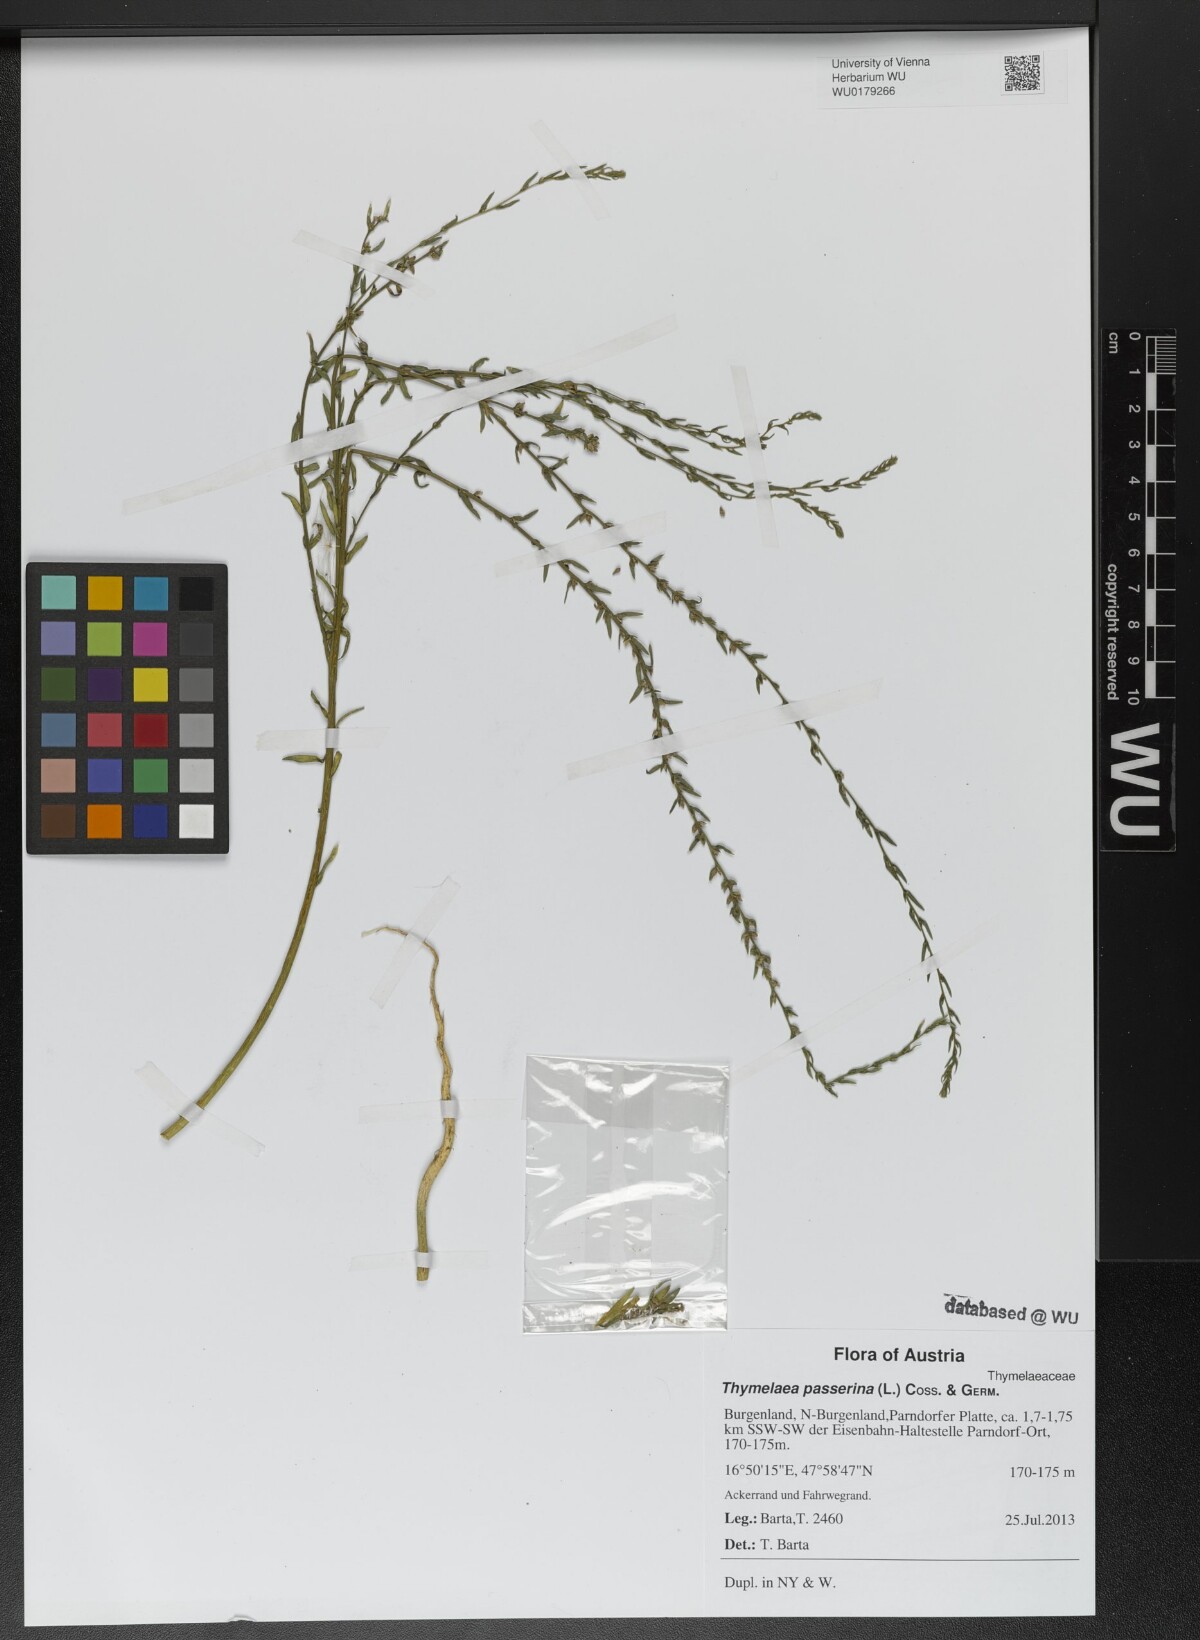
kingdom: Plantae
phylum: Tracheophyta
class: Magnoliopsida
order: Malvales
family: Thymelaeaceae
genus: Thymelaea
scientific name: Thymelaea passerina
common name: Annual thymelaea
